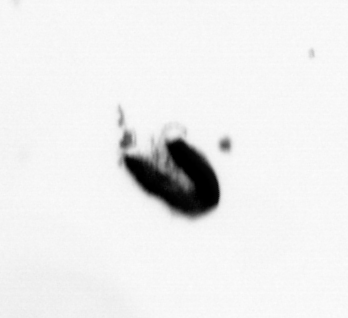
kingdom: Animalia
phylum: Annelida
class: Polychaeta
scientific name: Polychaeta
